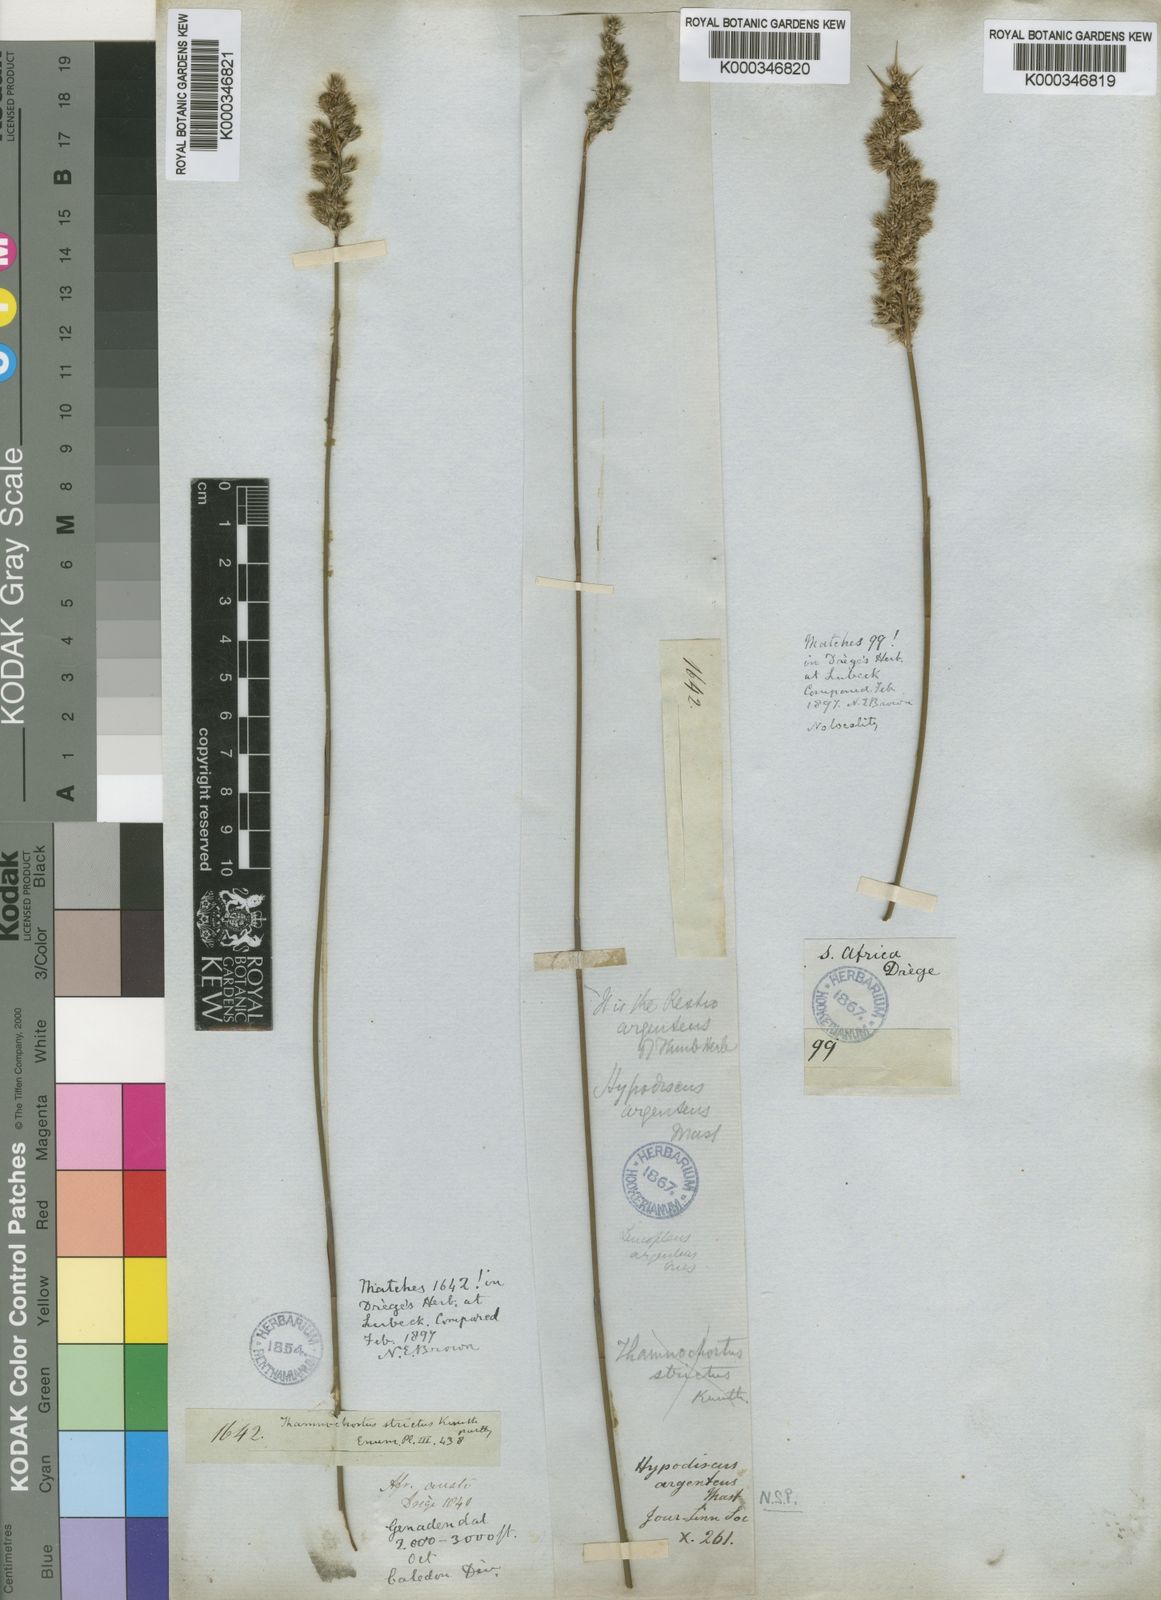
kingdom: Plantae
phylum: Tracheophyta
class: Liliopsida
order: Poales
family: Restionaceae
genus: Hypodiscus
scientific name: Hypodiscus argenteus
